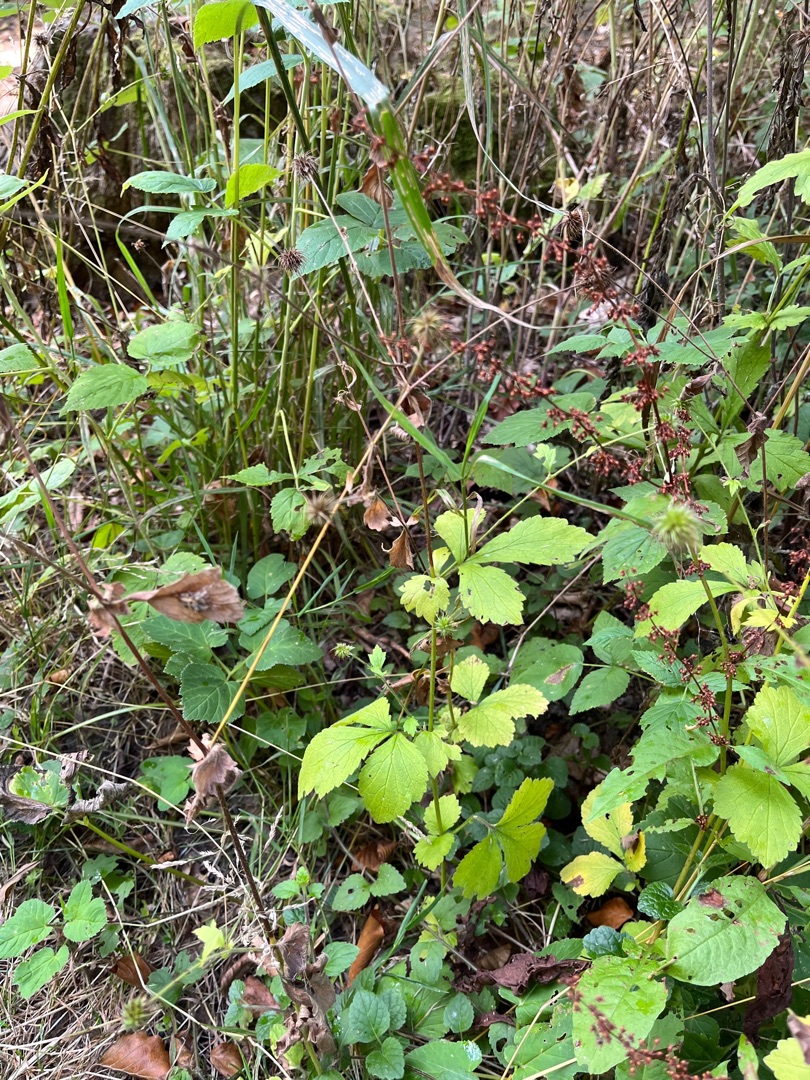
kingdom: Plantae
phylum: Tracheophyta
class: Magnoliopsida
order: Rosales
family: Rosaceae
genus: Geum
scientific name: Geum urbanum
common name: Feber-nellikerod
